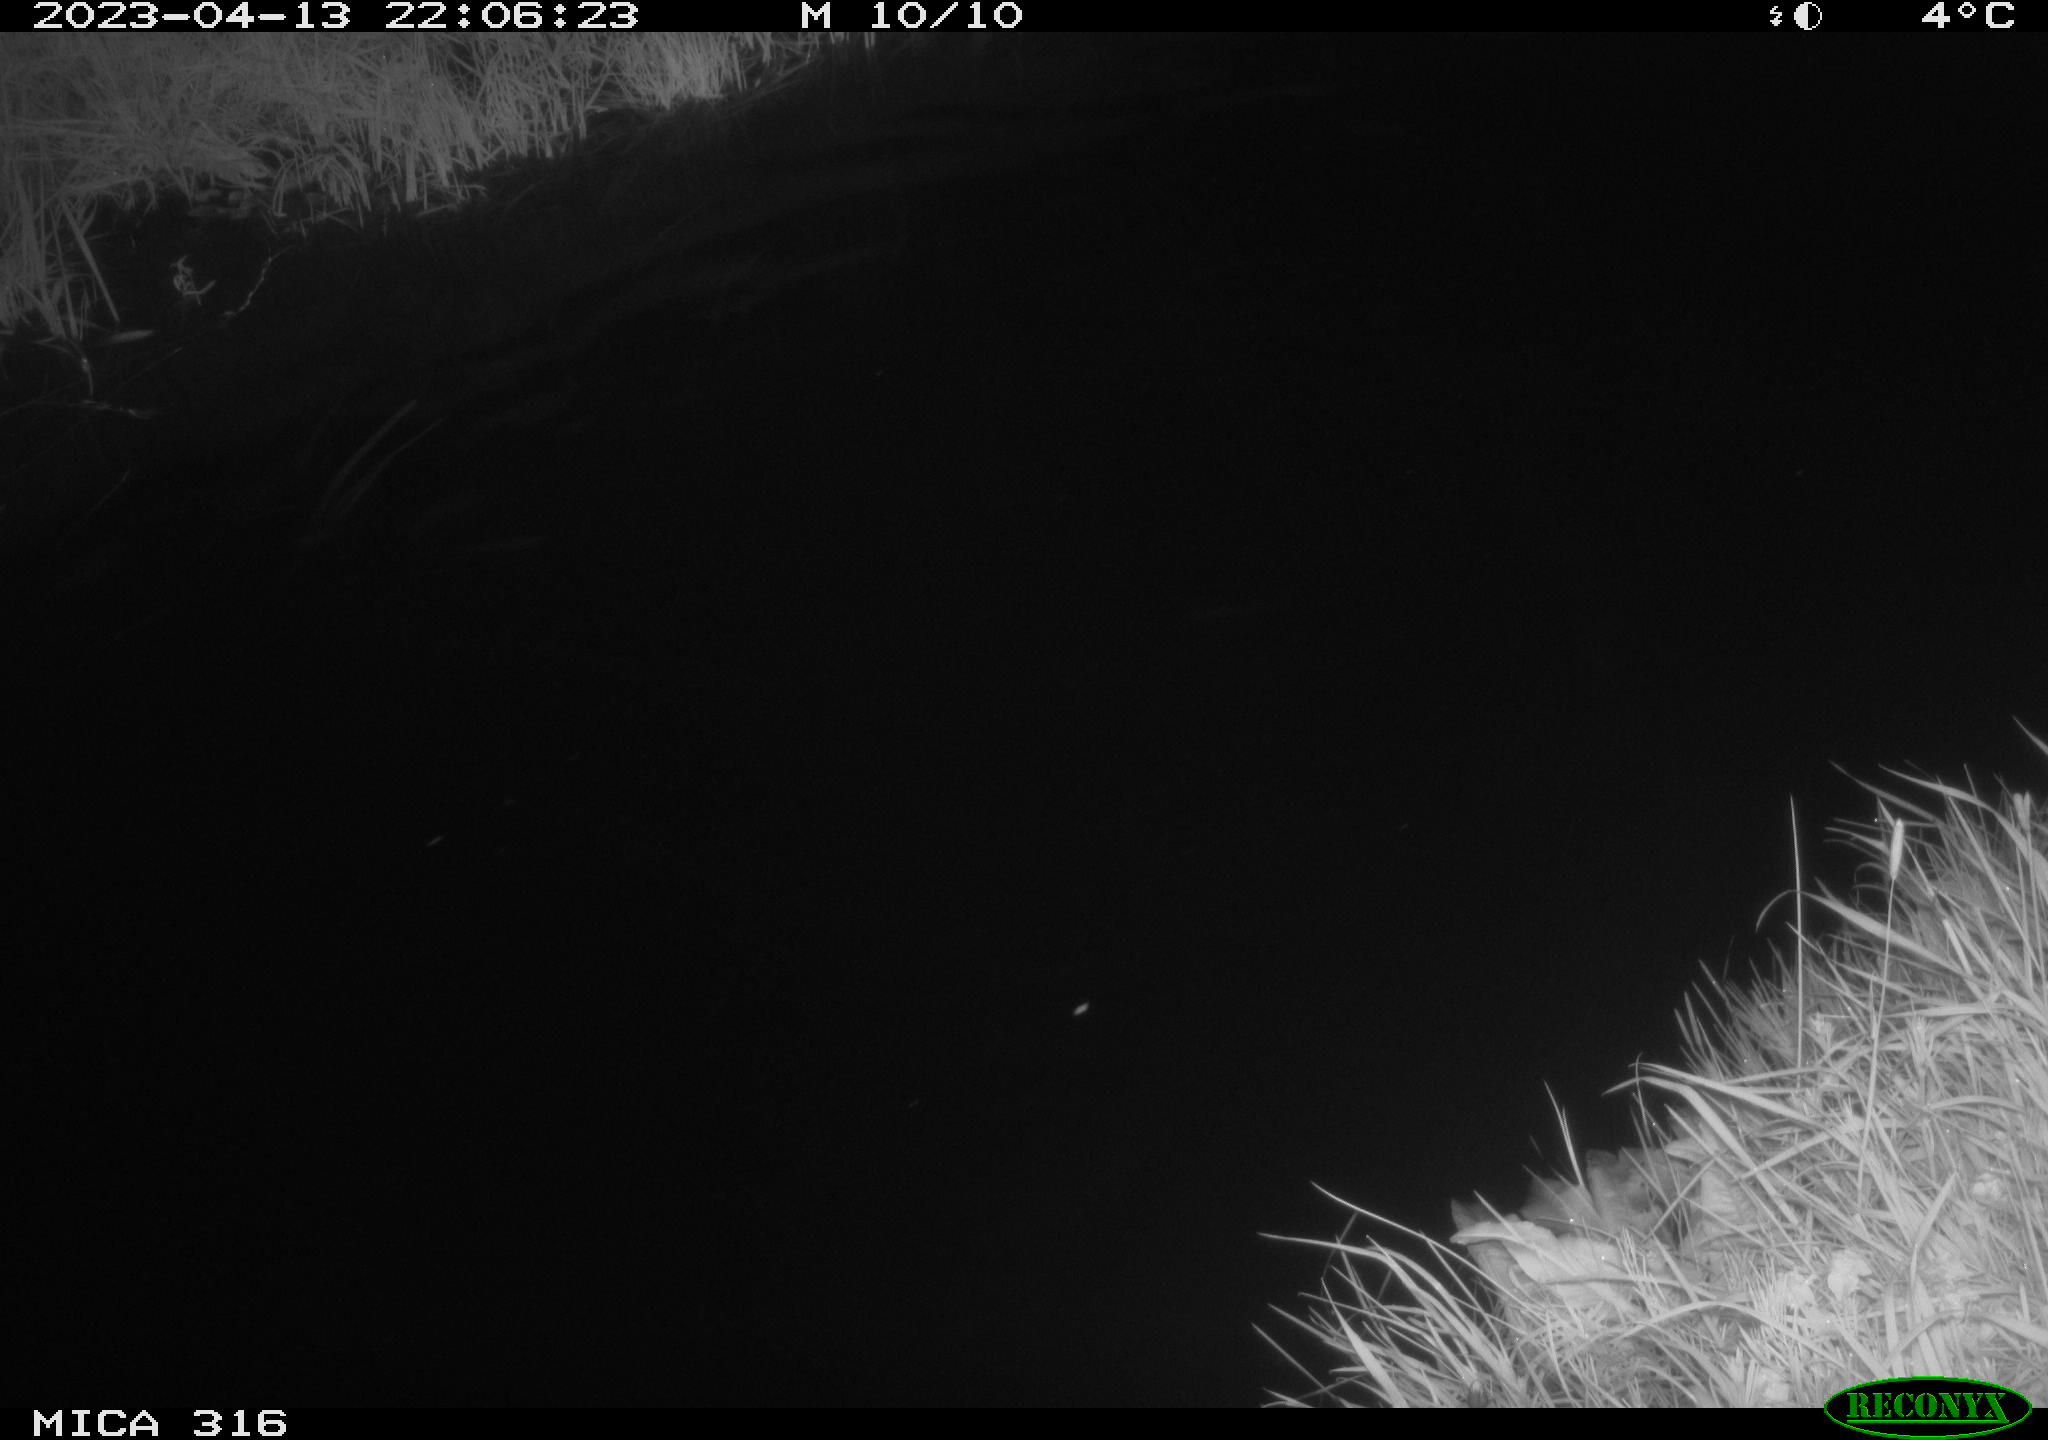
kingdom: Animalia
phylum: Chordata
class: Aves
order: Anseriformes
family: Anatidae
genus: Anas
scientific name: Anas
